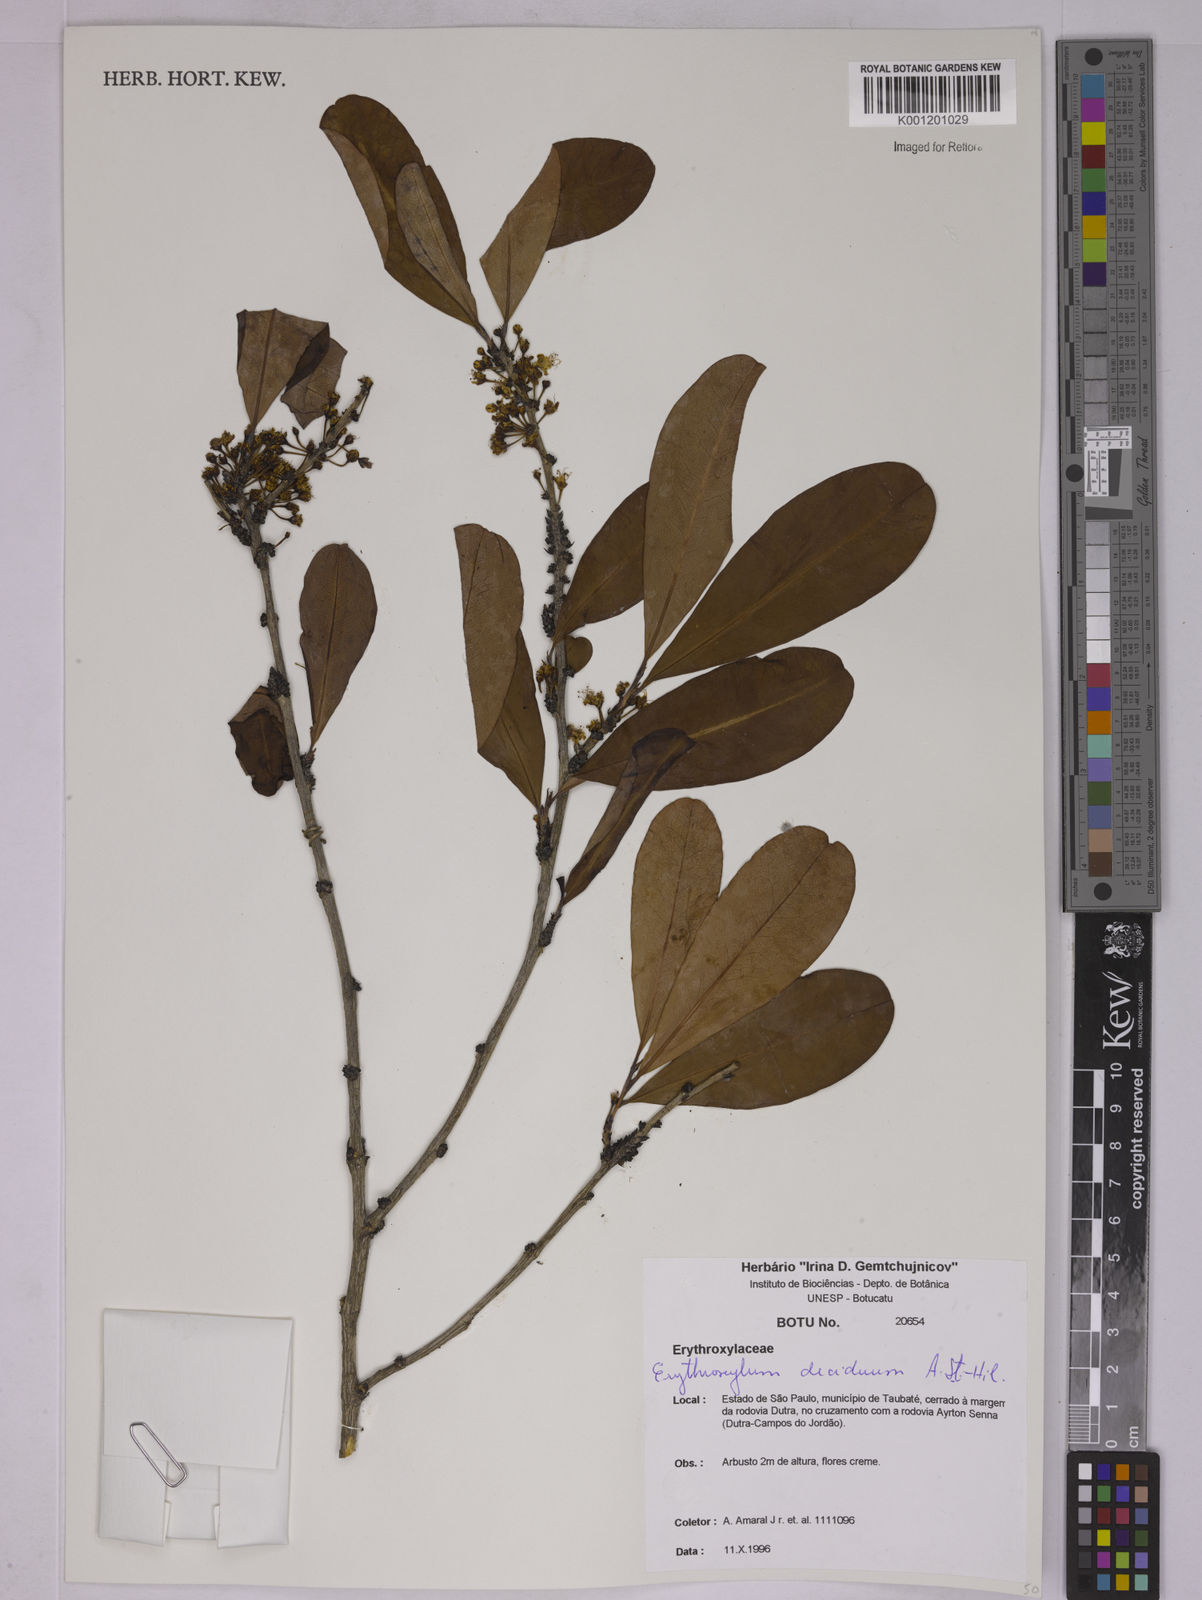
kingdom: Plantae
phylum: Tracheophyta
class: Magnoliopsida
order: Malpighiales
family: Erythroxylaceae
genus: Erythroxylum
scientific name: Erythroxylum deciduum
